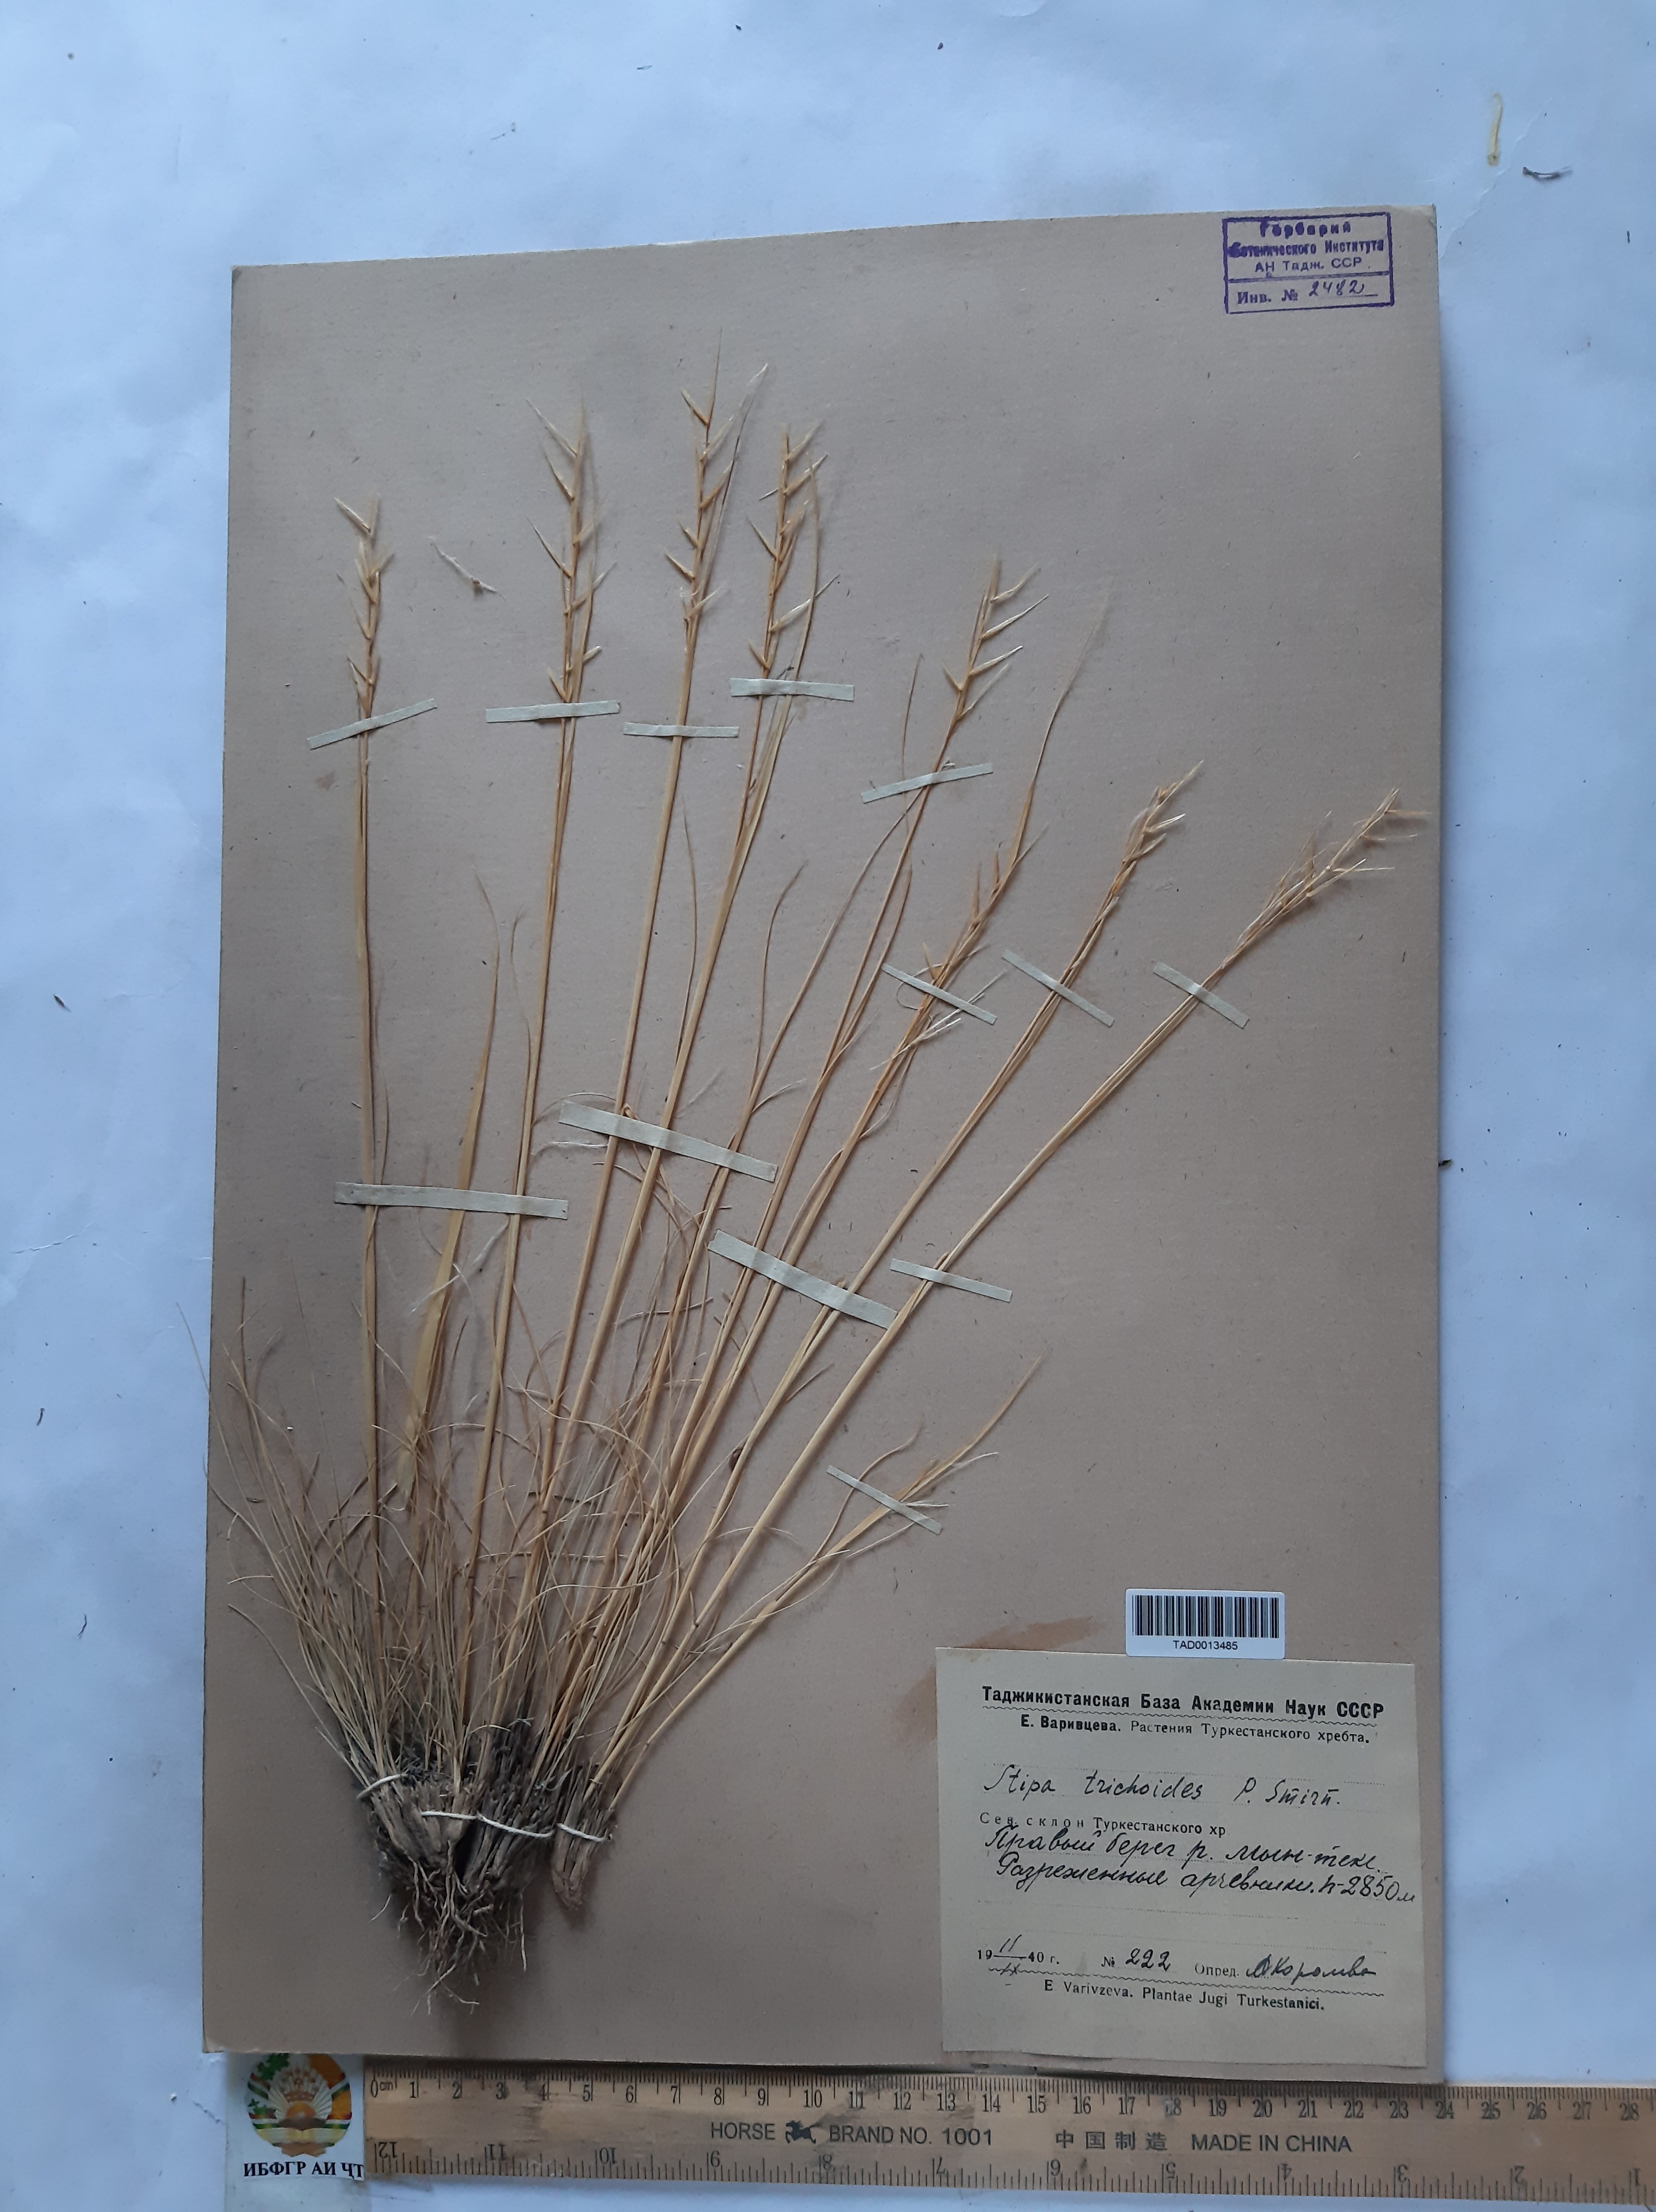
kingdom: Plantae
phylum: Tracheophyta
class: Liliopsida
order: Poales
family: Poaceae
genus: Stipa
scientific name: Stipa trichoides
